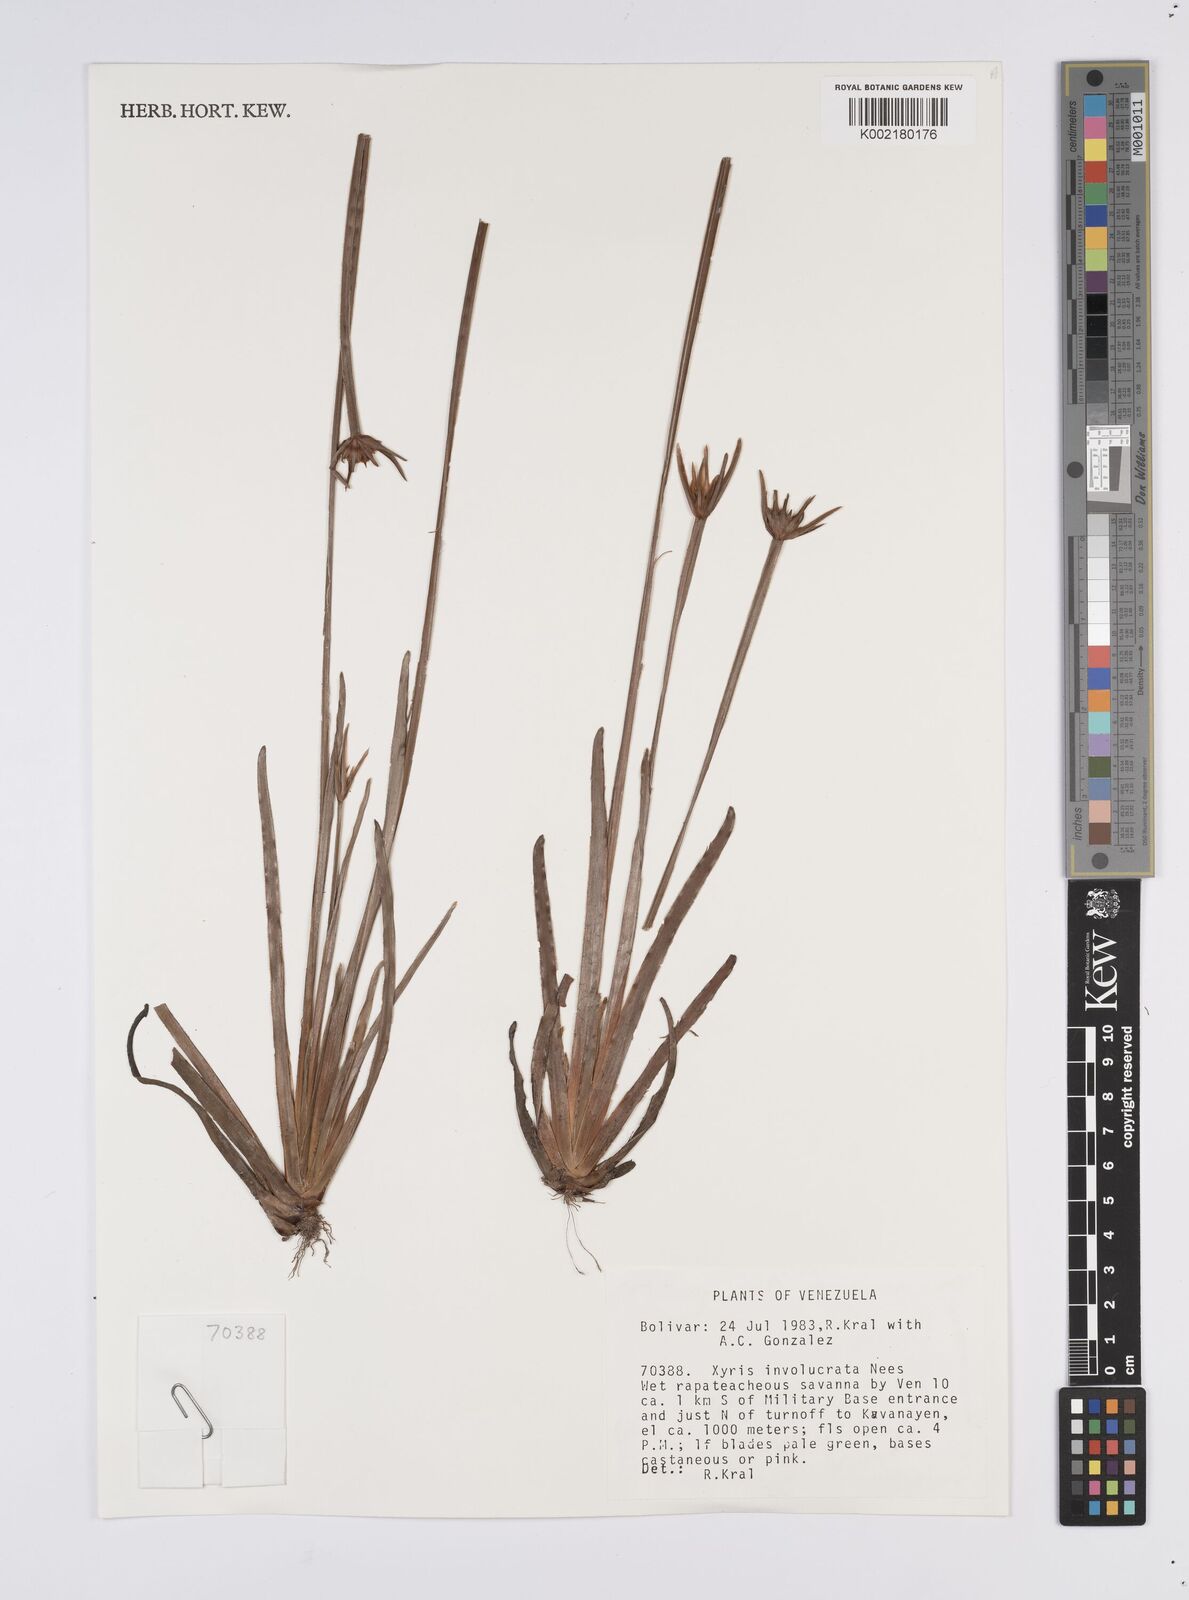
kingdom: Plantae
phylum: Tracheophyta
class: Liliopsida
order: Poales
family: Xyridaceae
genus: Xyris
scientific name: Xyris involucrata
